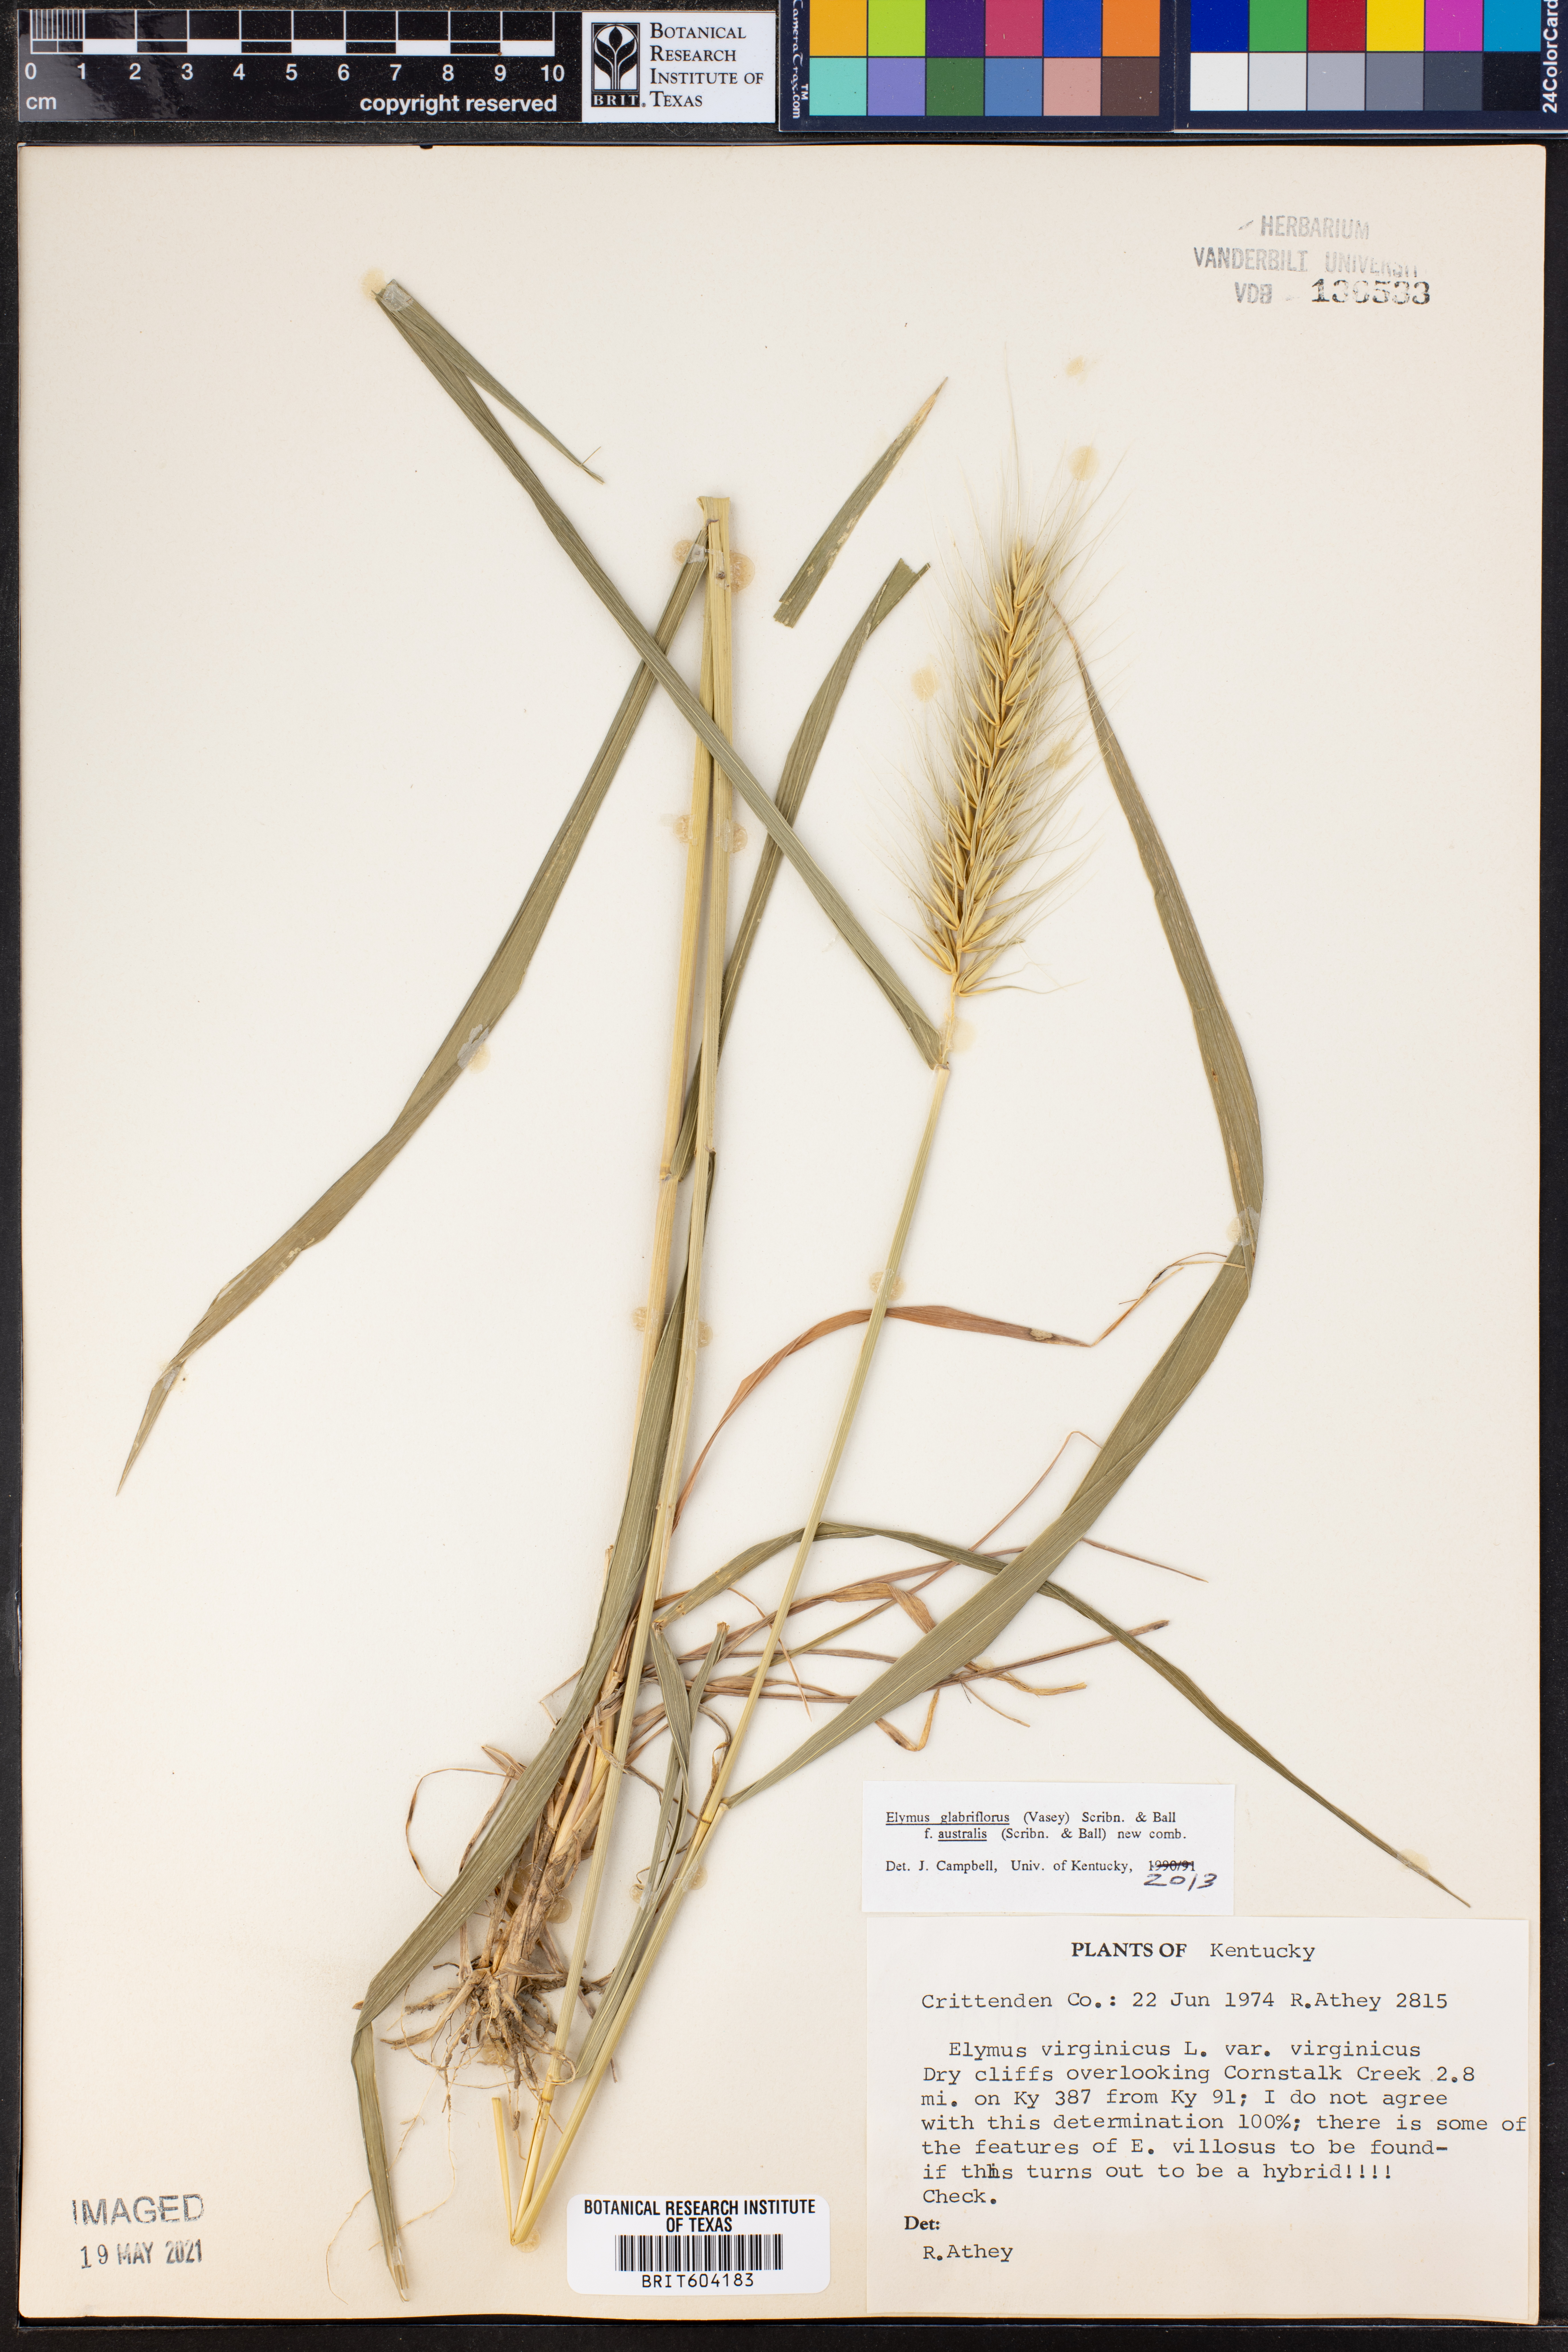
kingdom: Plantae
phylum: Tracheophyta
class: Liliopsida
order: Poales
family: Poaceae
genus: Elymus
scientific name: Elymus virginicus
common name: Common eastern wildrye
